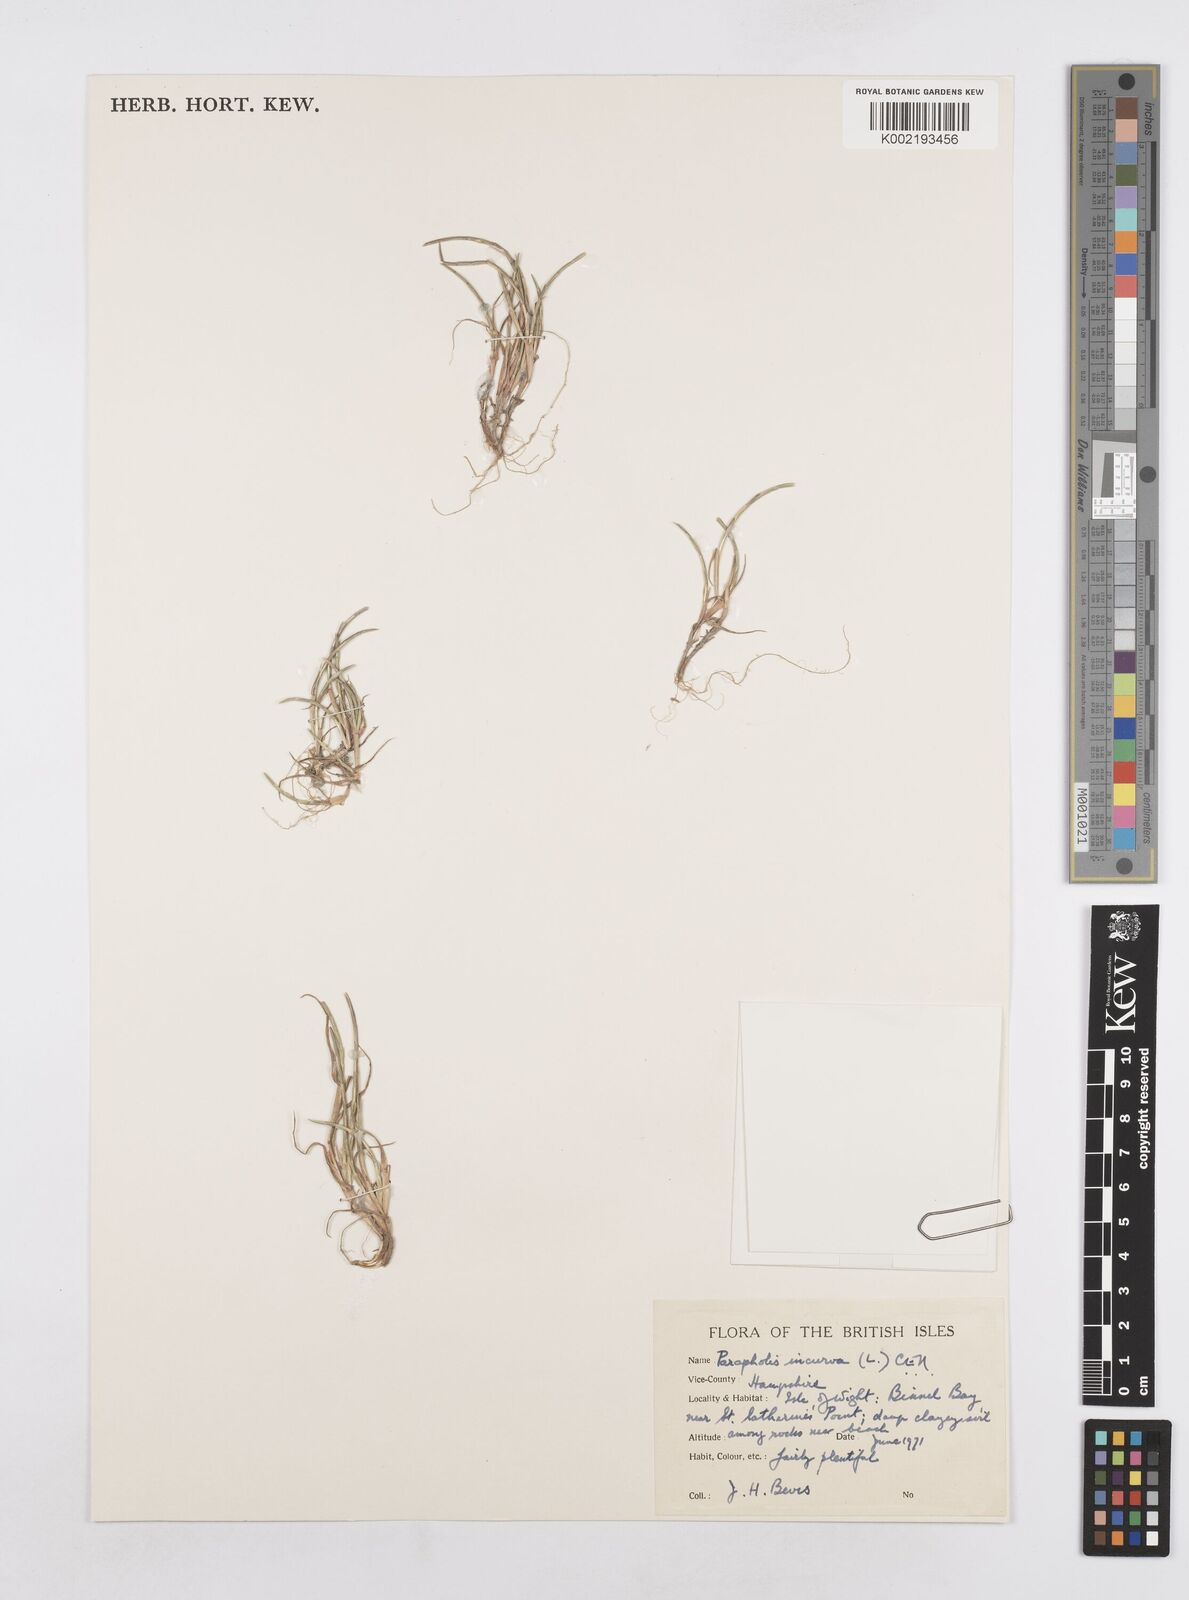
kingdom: Plantae
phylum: Tracheophyta
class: Liliopsida
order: Poales
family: Poaceae
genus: Parapholis
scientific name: Parapholis incurva
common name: Curved sicklegrass
